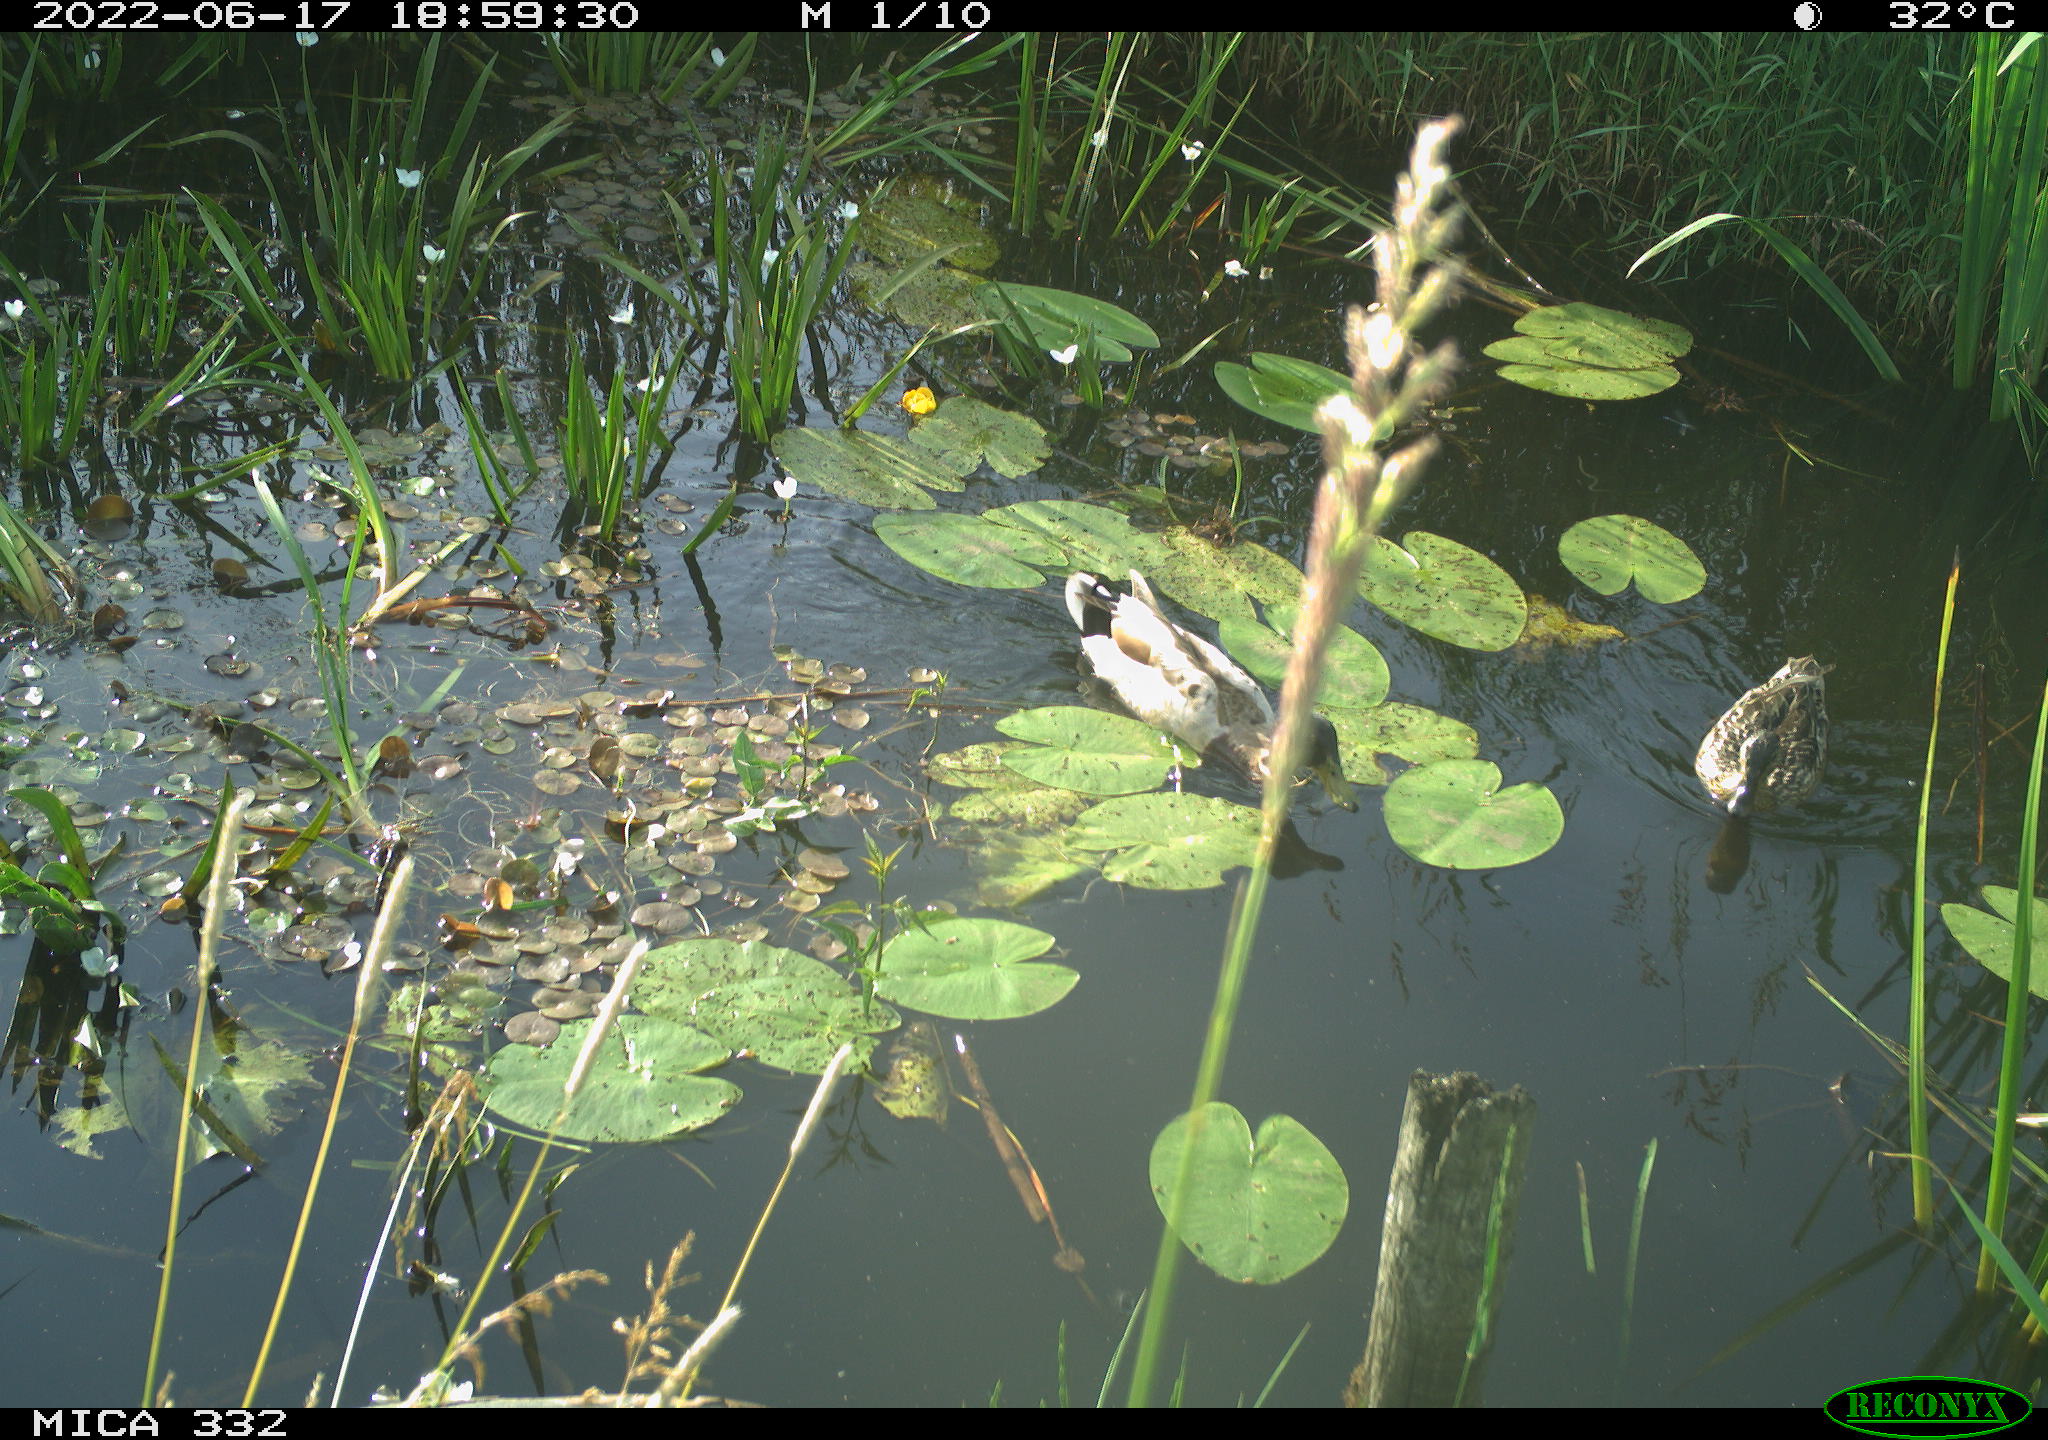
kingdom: Animalia
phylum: Chordata
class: Aves
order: Anseriformes
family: Anatidae
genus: Anas
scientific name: Anas platyrhynchos
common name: Mallard
